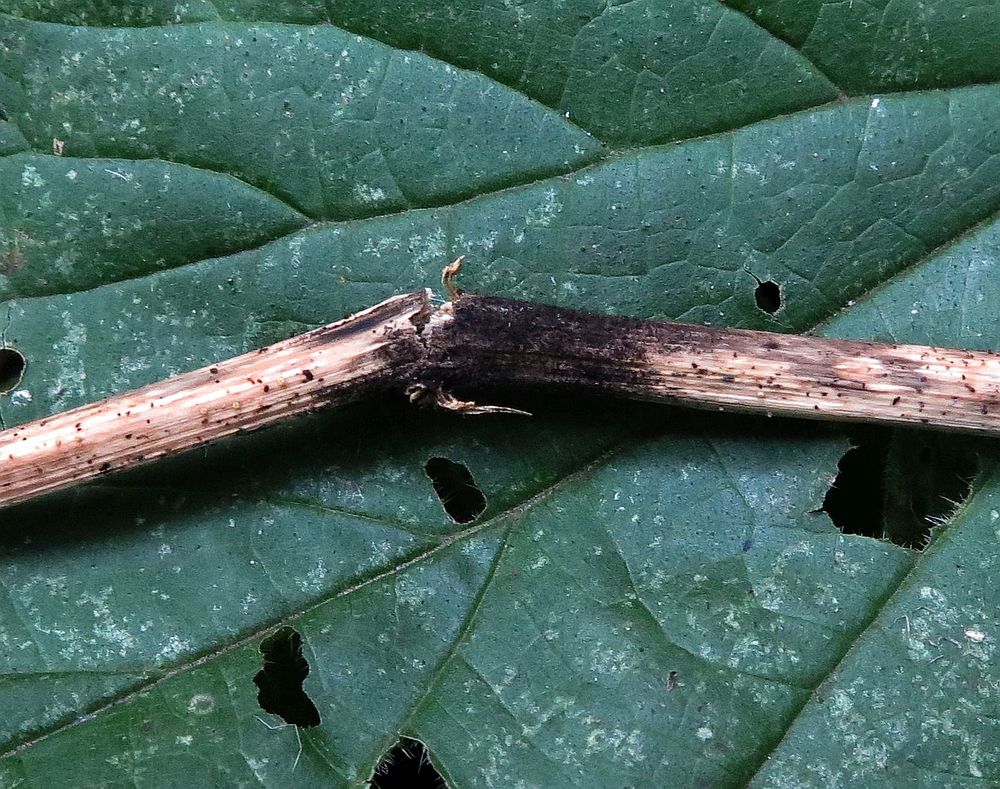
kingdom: Fungi
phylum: Ascomycota
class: Dothideomycetes
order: Pleosporales
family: Torulaceae
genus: Dendryphion
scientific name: Dendryphion comosum
